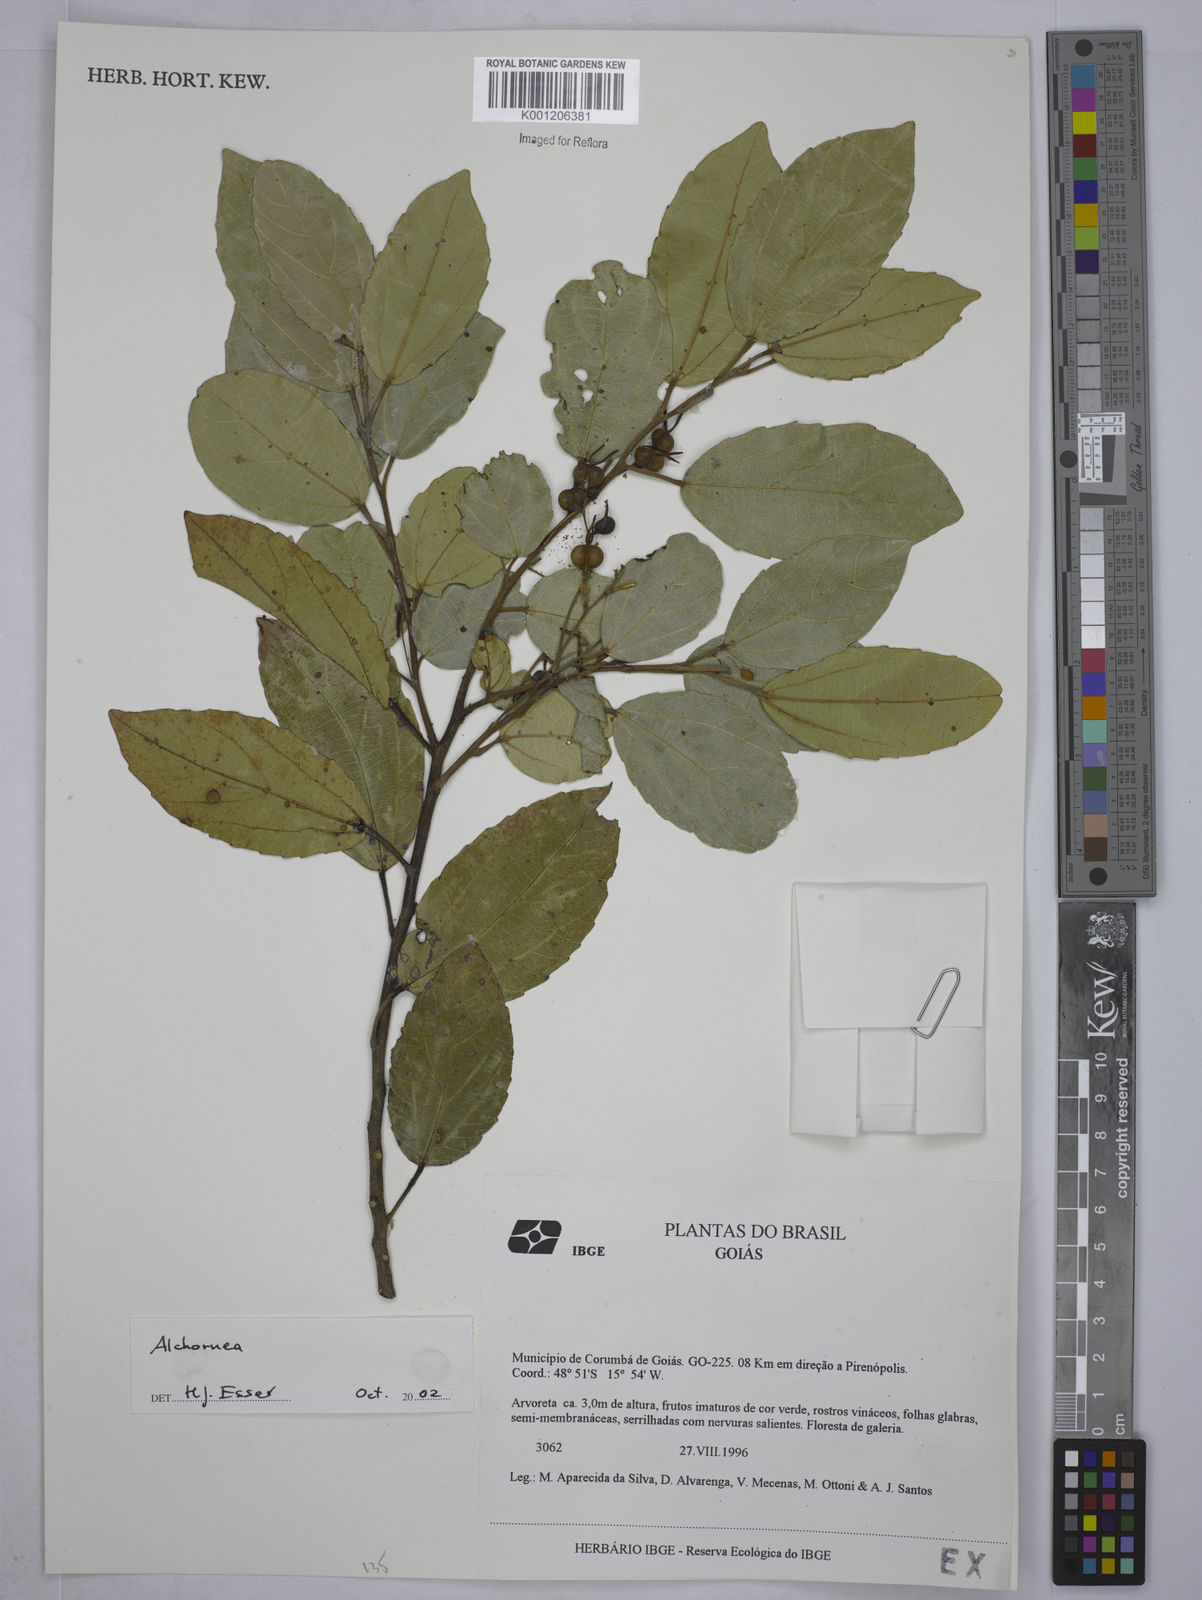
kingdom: Plantae
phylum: Tracheophyta
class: Magnoliopsida
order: Malpighiales
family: Euphorbiaceae
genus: Alchornea
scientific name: Alchornea
